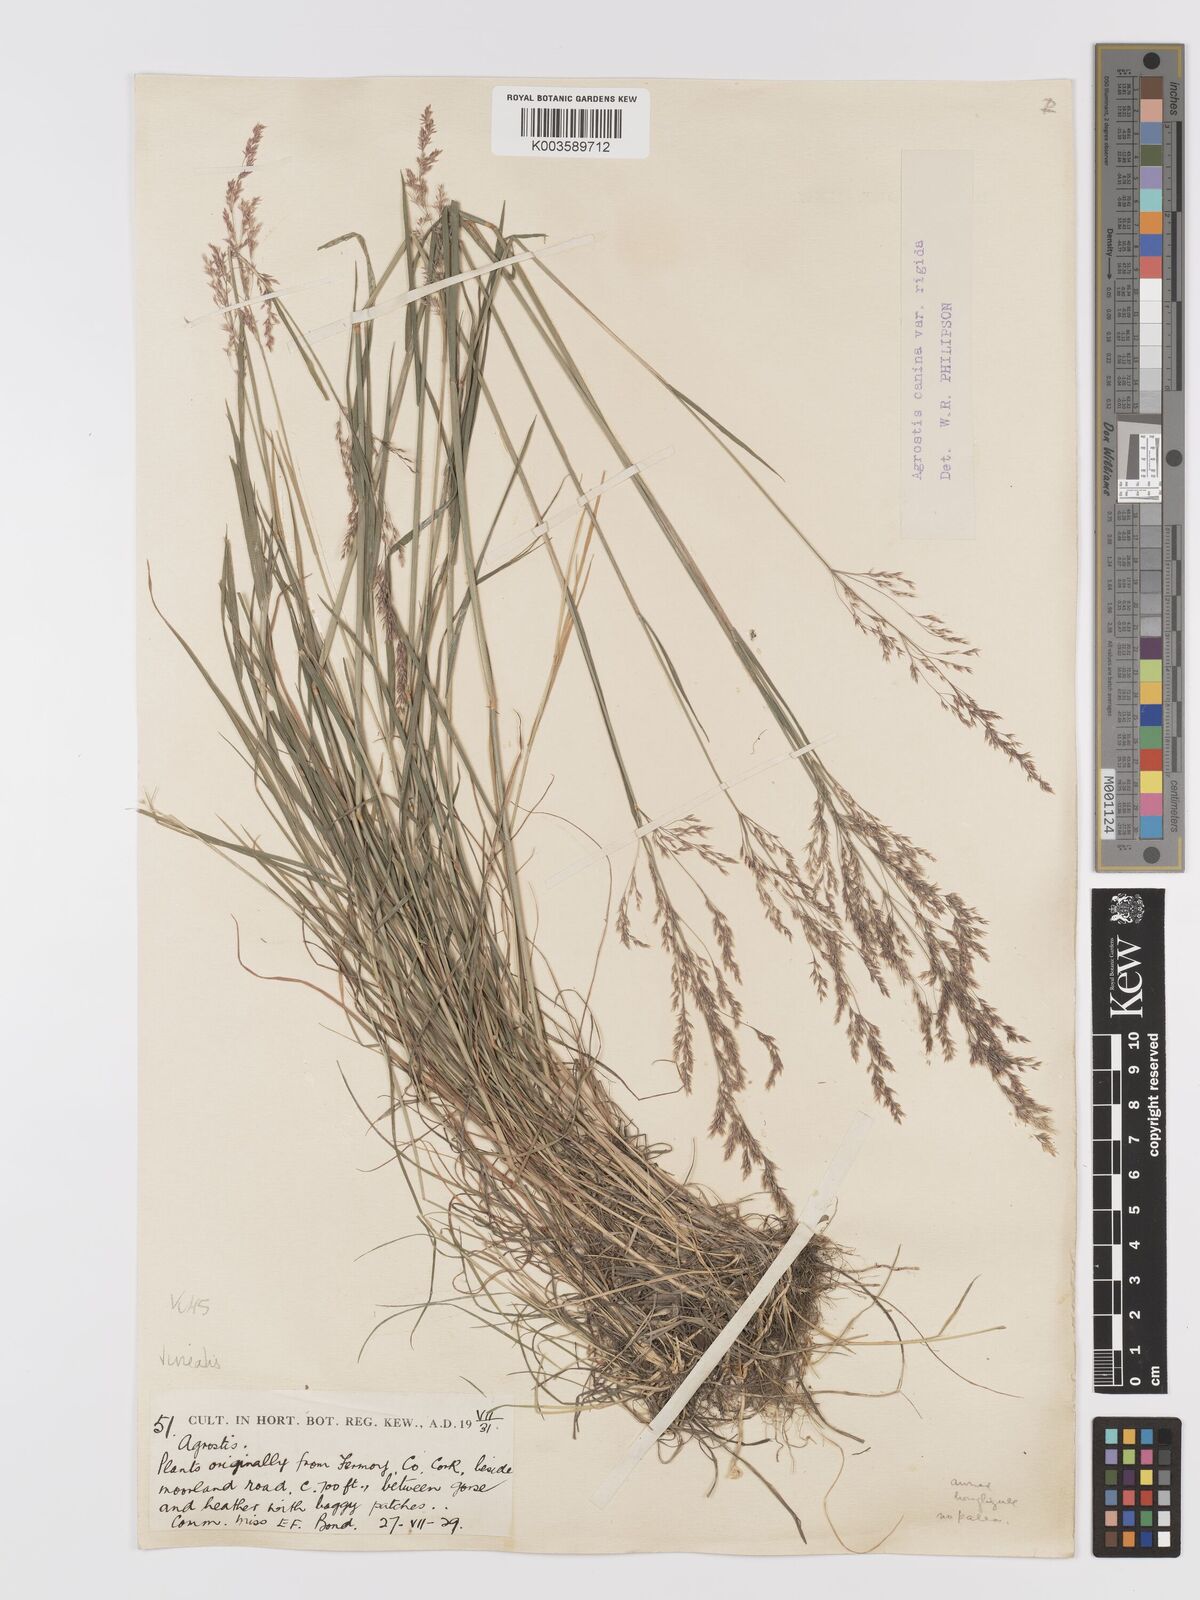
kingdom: Plantae
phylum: Tracheophyta
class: Liliopsida
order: Poales
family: Poaceae
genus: Agrostis
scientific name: Agrostis
